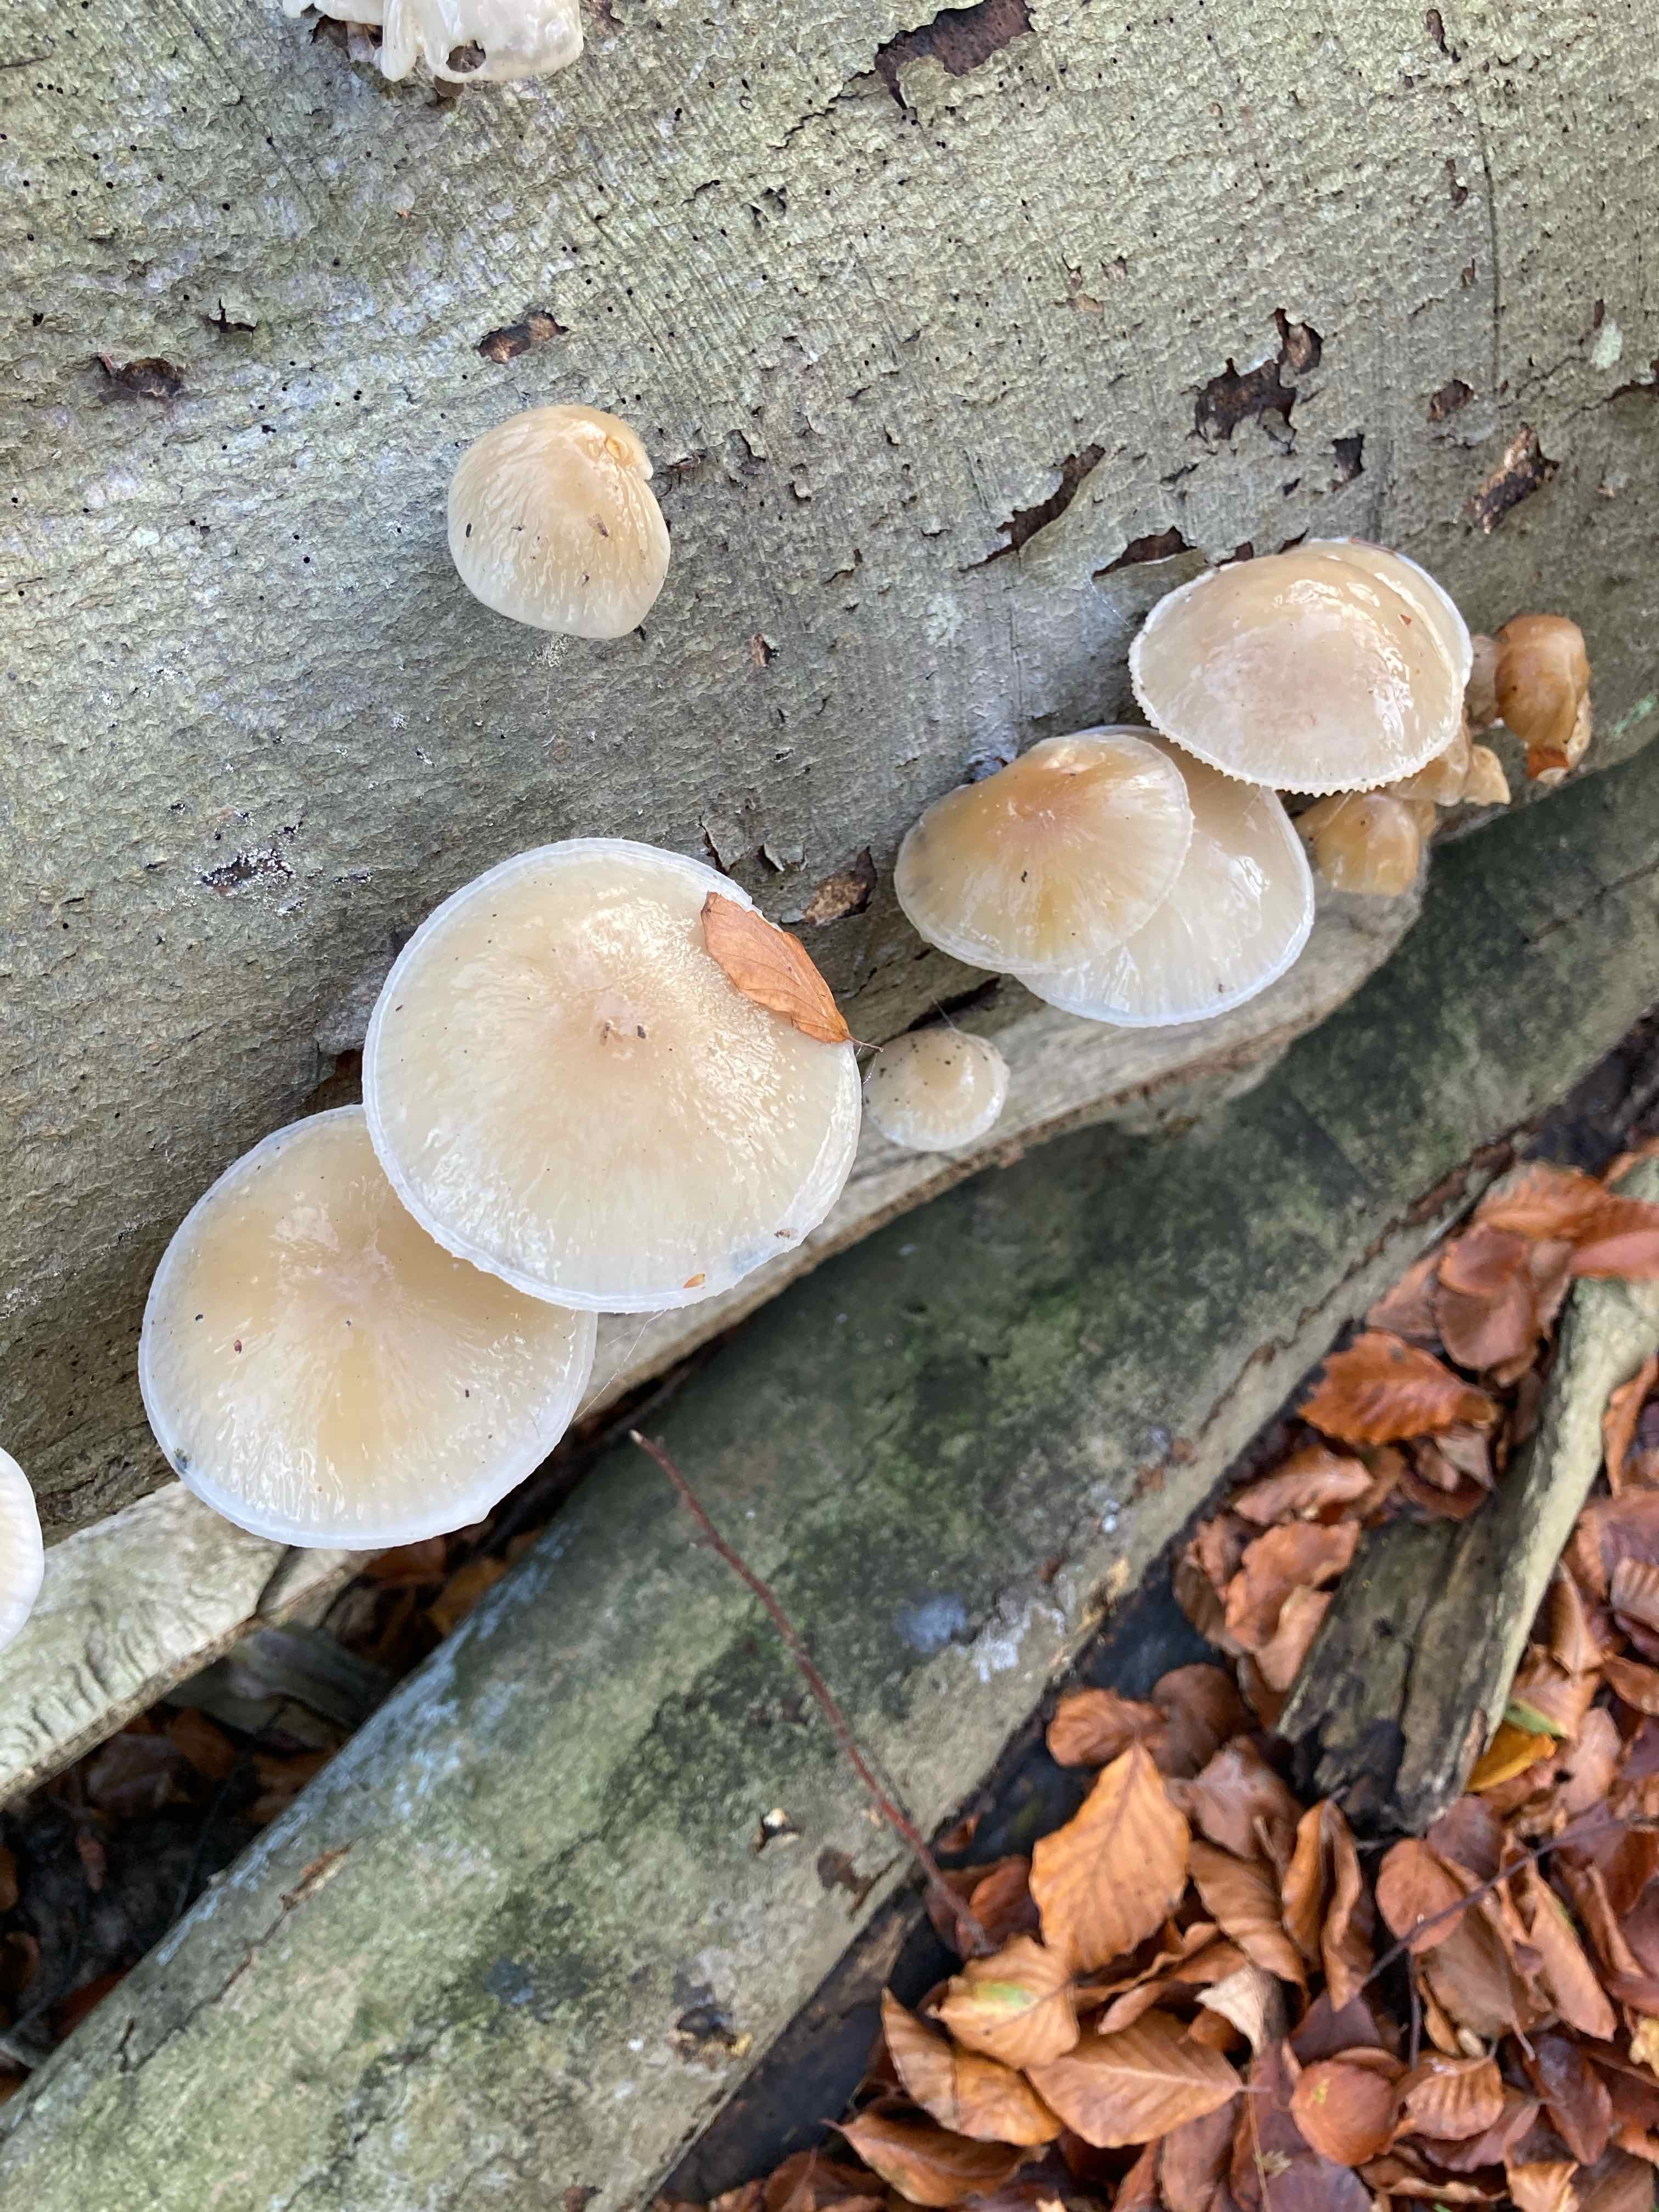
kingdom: Fungi
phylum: Basidiomycota
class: Agaricomycetes
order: Agaricales
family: Physalacriaceae
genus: Mucidula
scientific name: Mucidula mucida
